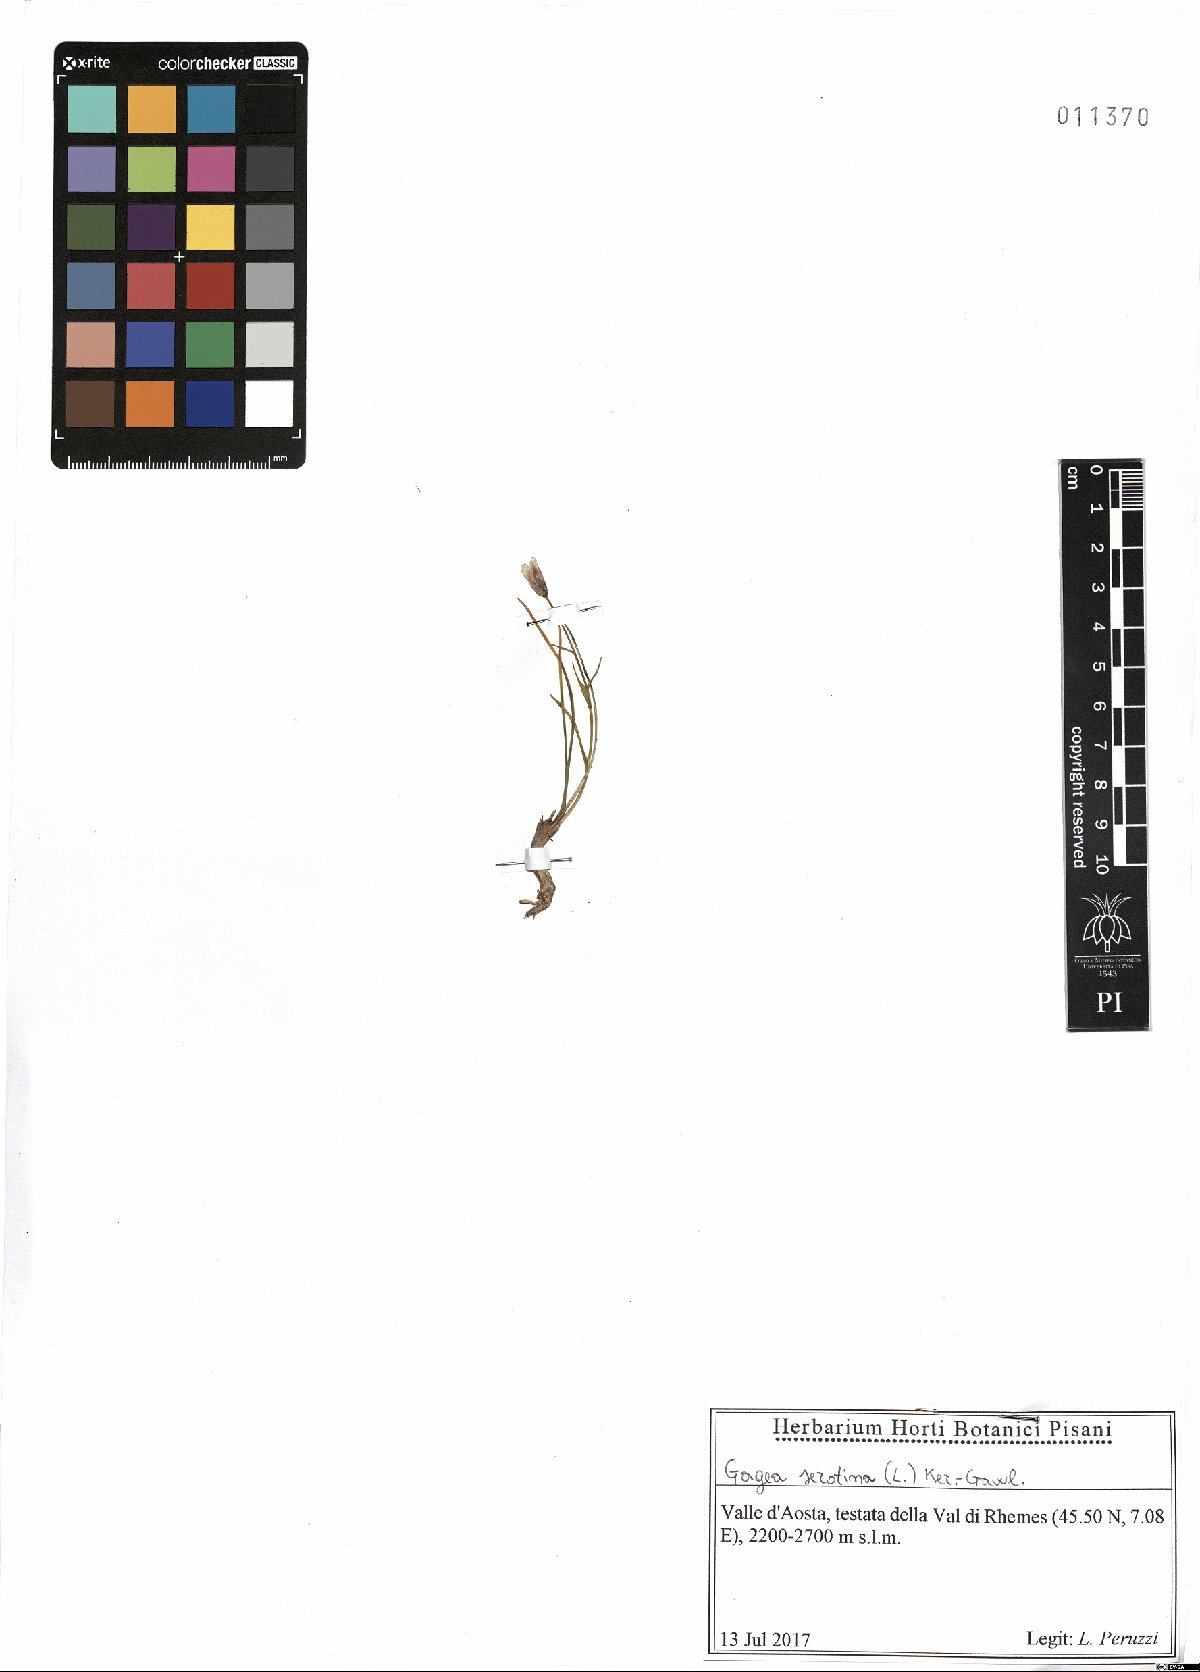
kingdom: Plantae
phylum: Tracheophyta
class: Liliopsida
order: Liliales
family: Liliaceae
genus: Gagea
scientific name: Gagea serotina
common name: Snowdon lily
